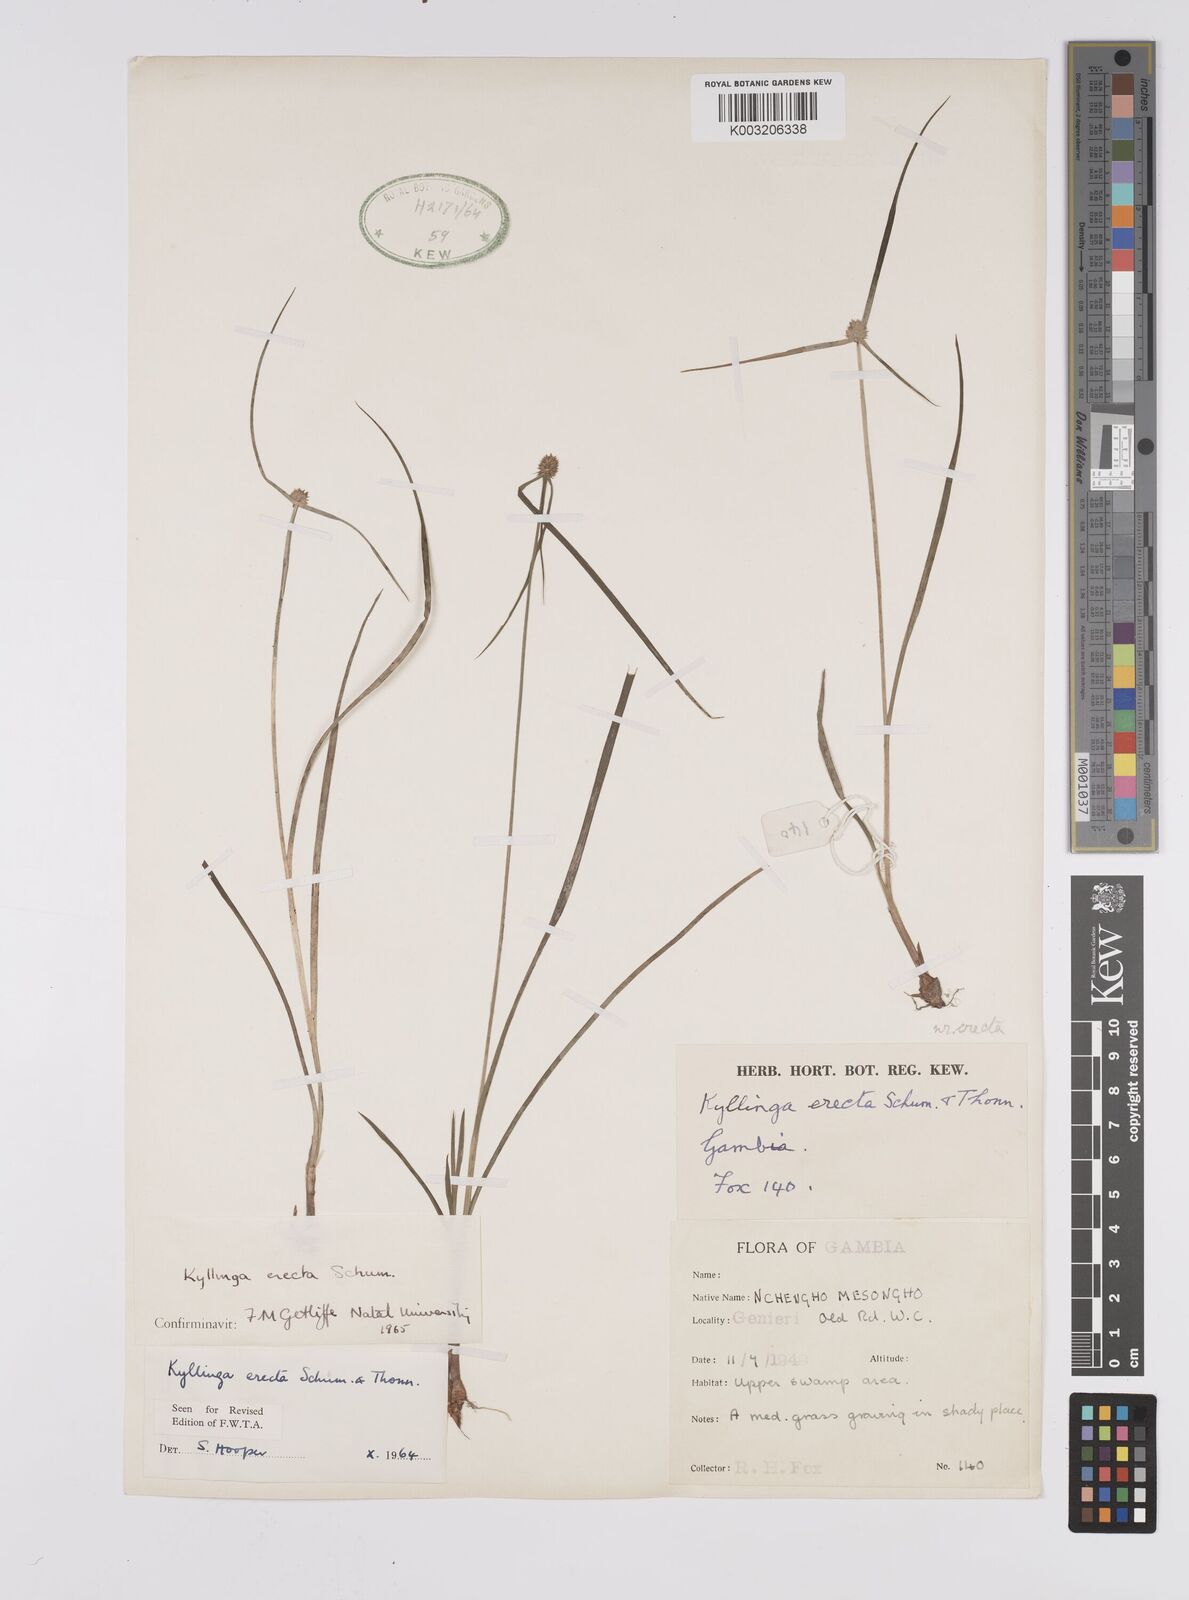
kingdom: Plantae
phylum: Tracheophyta
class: Liliopsida
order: Poales
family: Cyperaceae
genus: Cyperus
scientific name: Cyperus erectus
